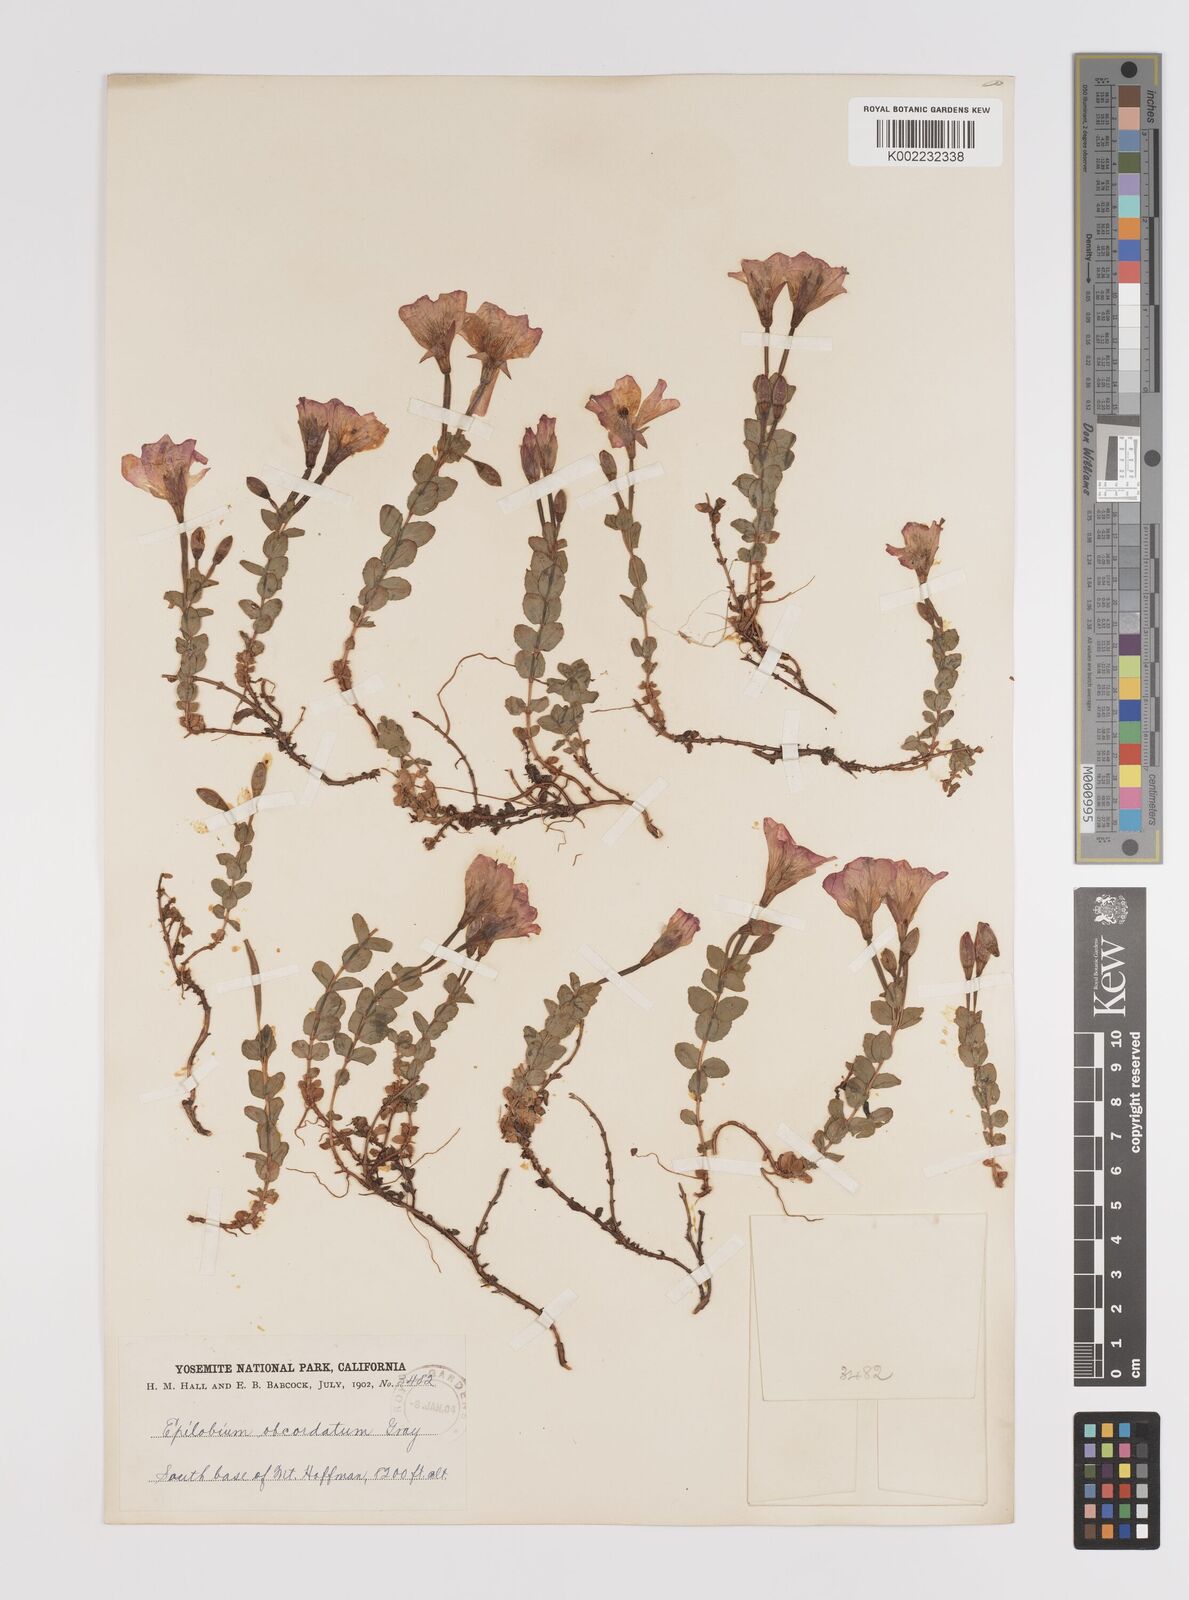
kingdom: Plantae
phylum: Tracheophyta
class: Magnoliopsida
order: Myrtales
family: Onagraceae
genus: Epilobium
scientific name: Epilobium obcordatum
